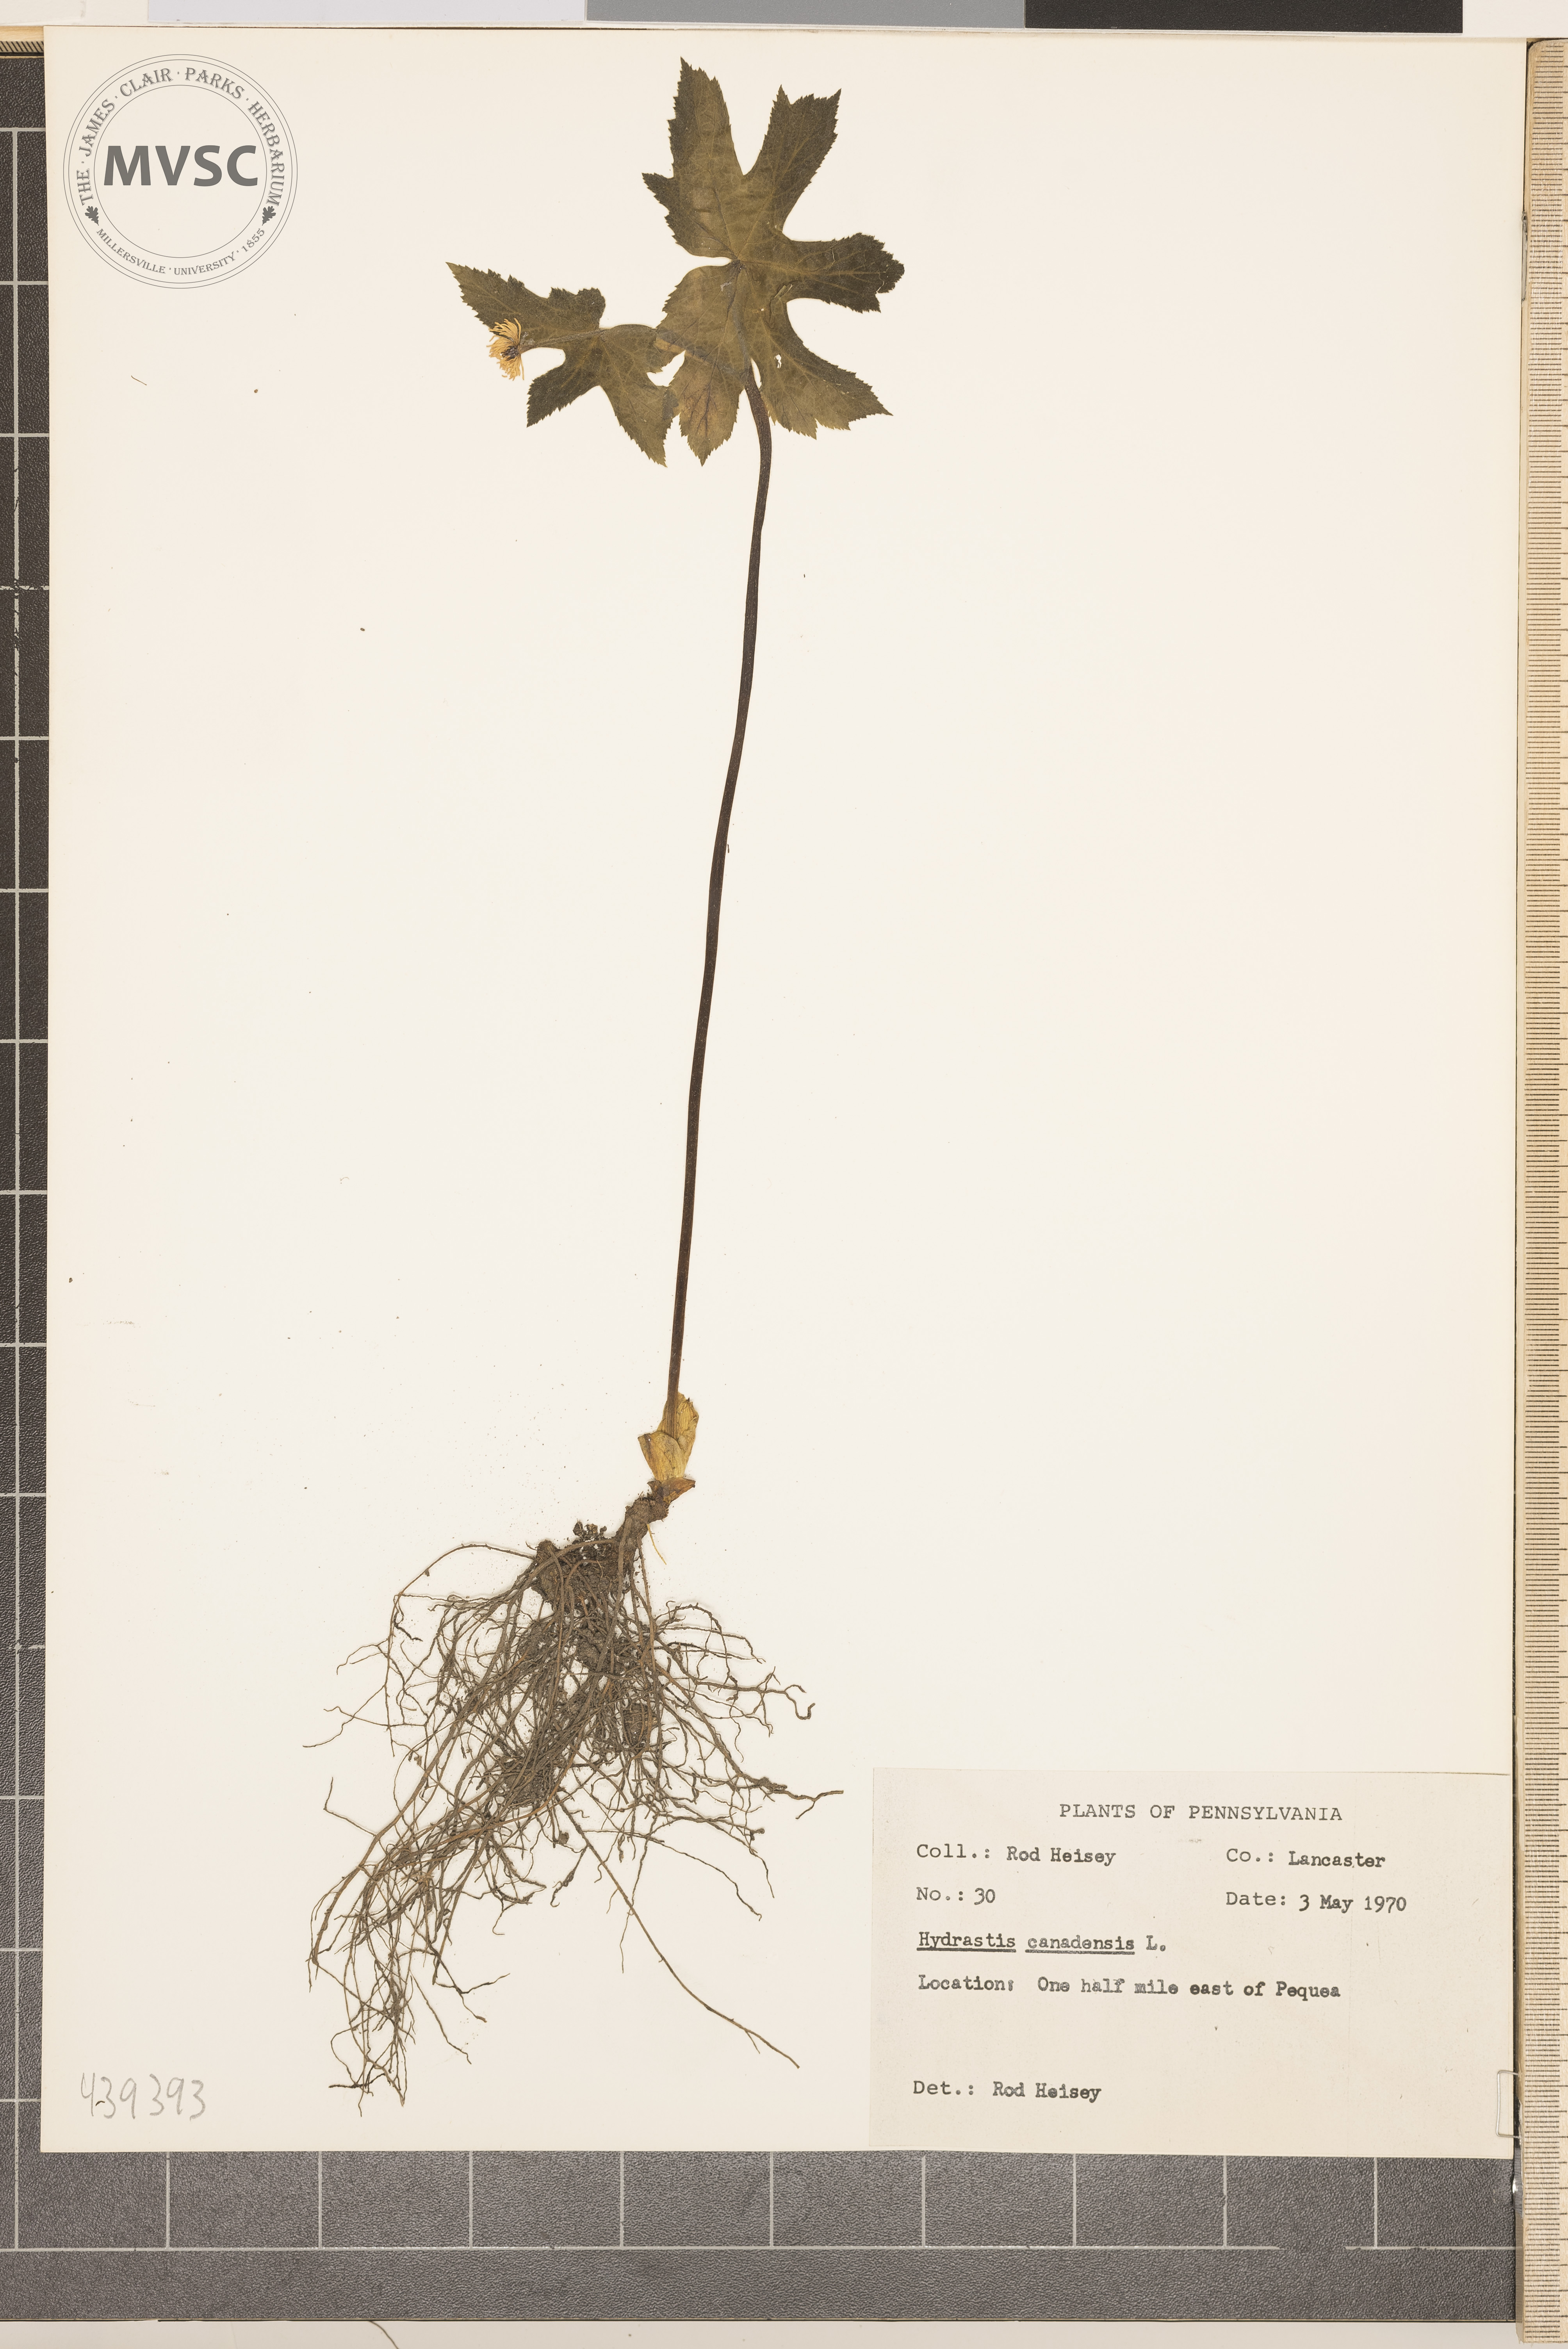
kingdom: Plantae
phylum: Tracheophyta
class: Magnoliopsida
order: Ranunculales
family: Ranunculaceae
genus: Hydrastis
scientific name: Hydrastis canadensis
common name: Goldenseal
